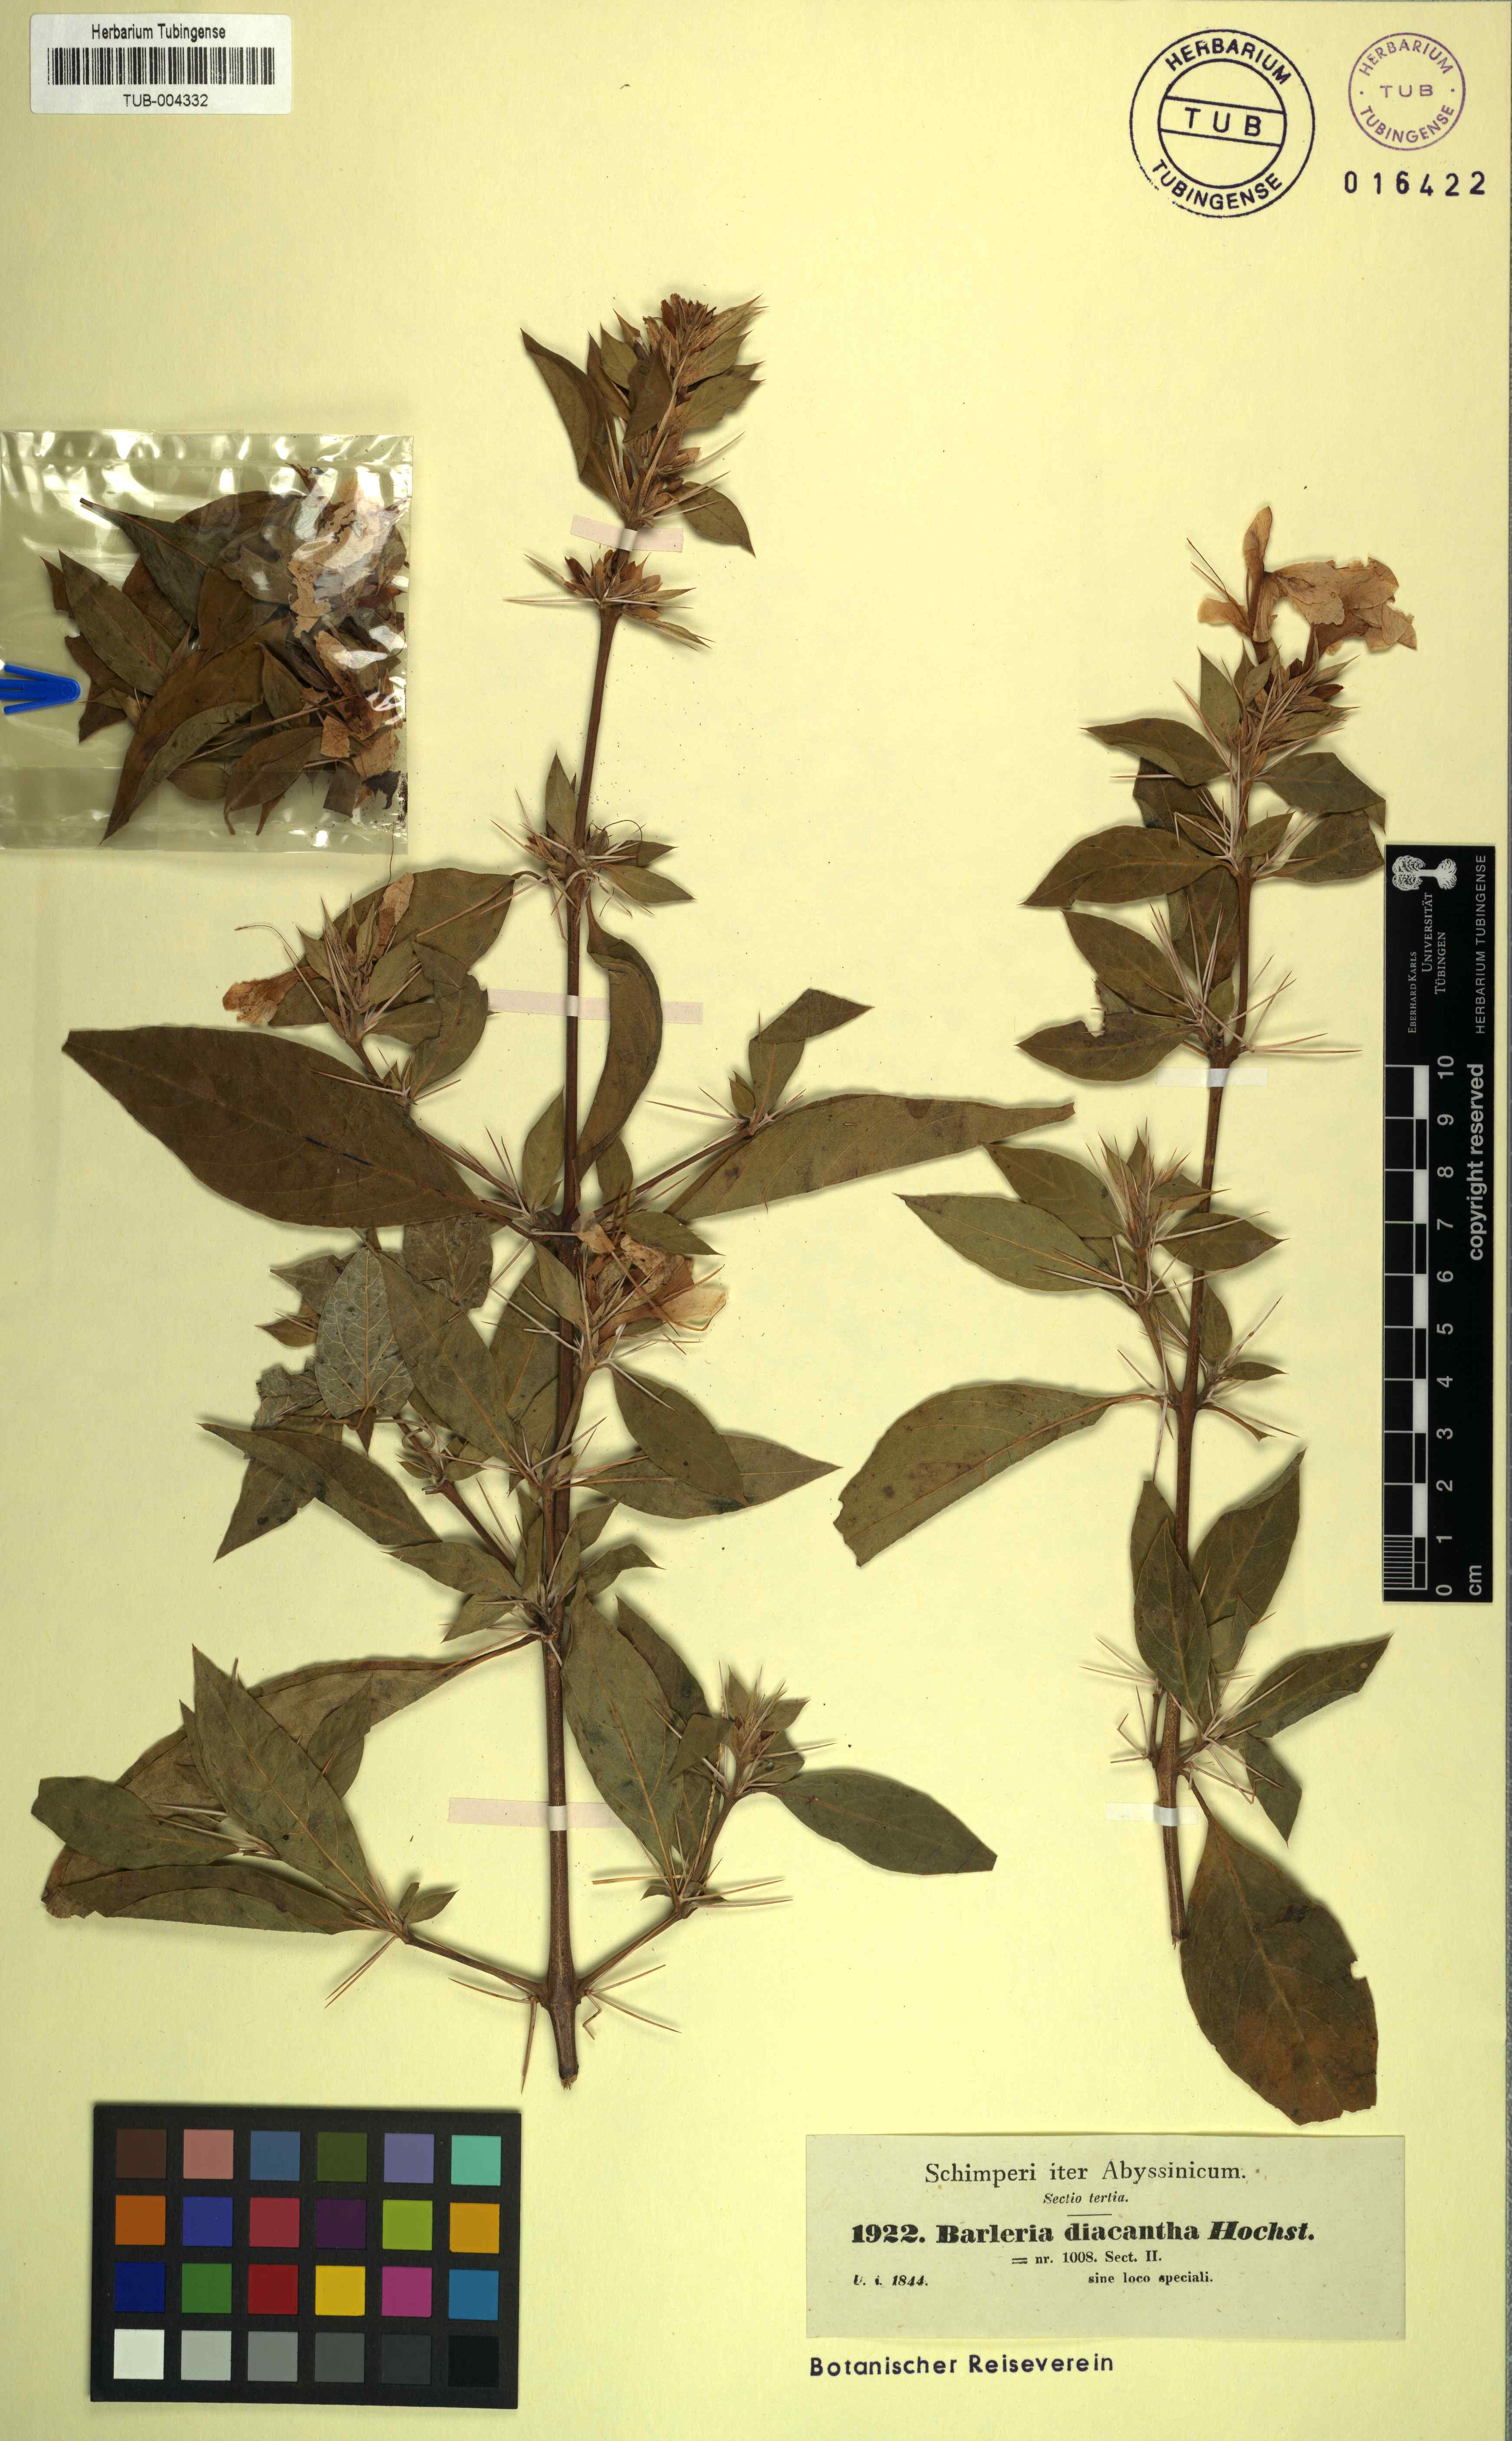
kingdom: Plantae
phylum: Tracheophyta
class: Magnoliopsida
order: Lamiales
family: Acanthaceae
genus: Barleria
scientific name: Barleria prionitis
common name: Barleria
